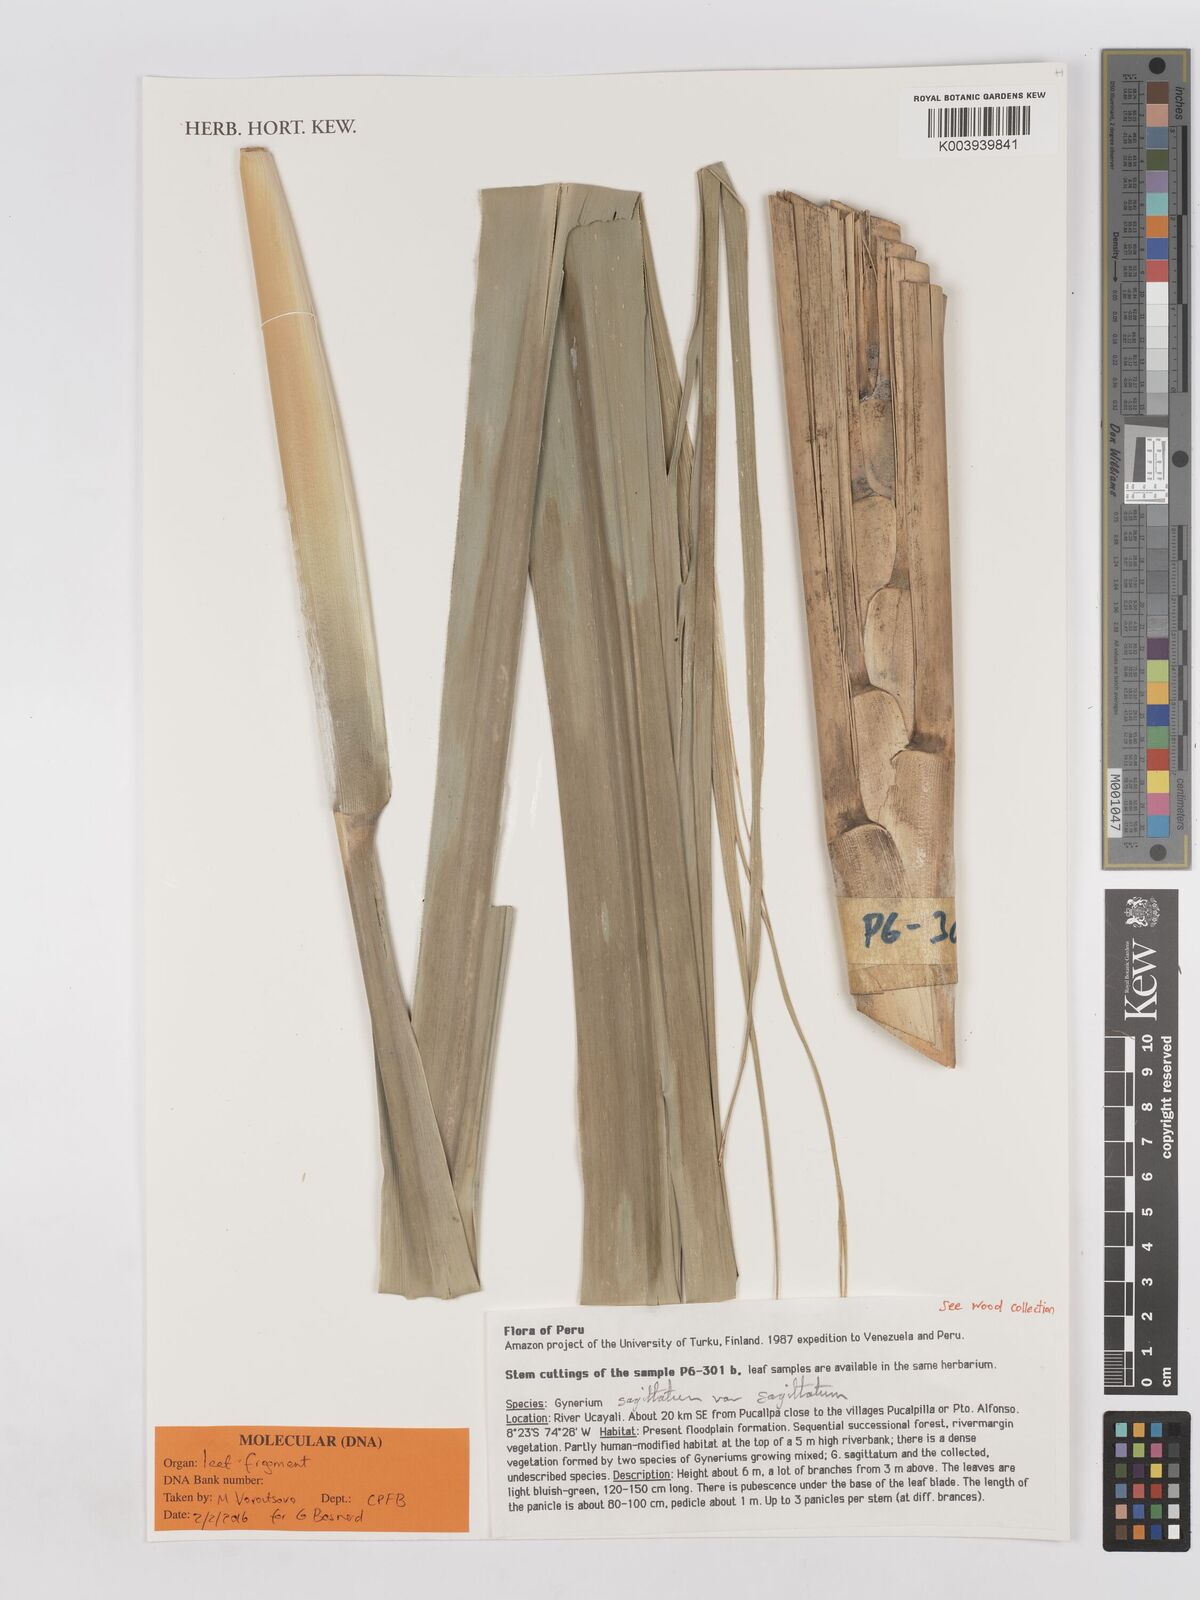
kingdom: Plantae
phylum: Tracheophyta
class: Liliopsida
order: Poales
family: Poaceae
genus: Gynerium
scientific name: Gynerium sagittatum
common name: Wild cane
